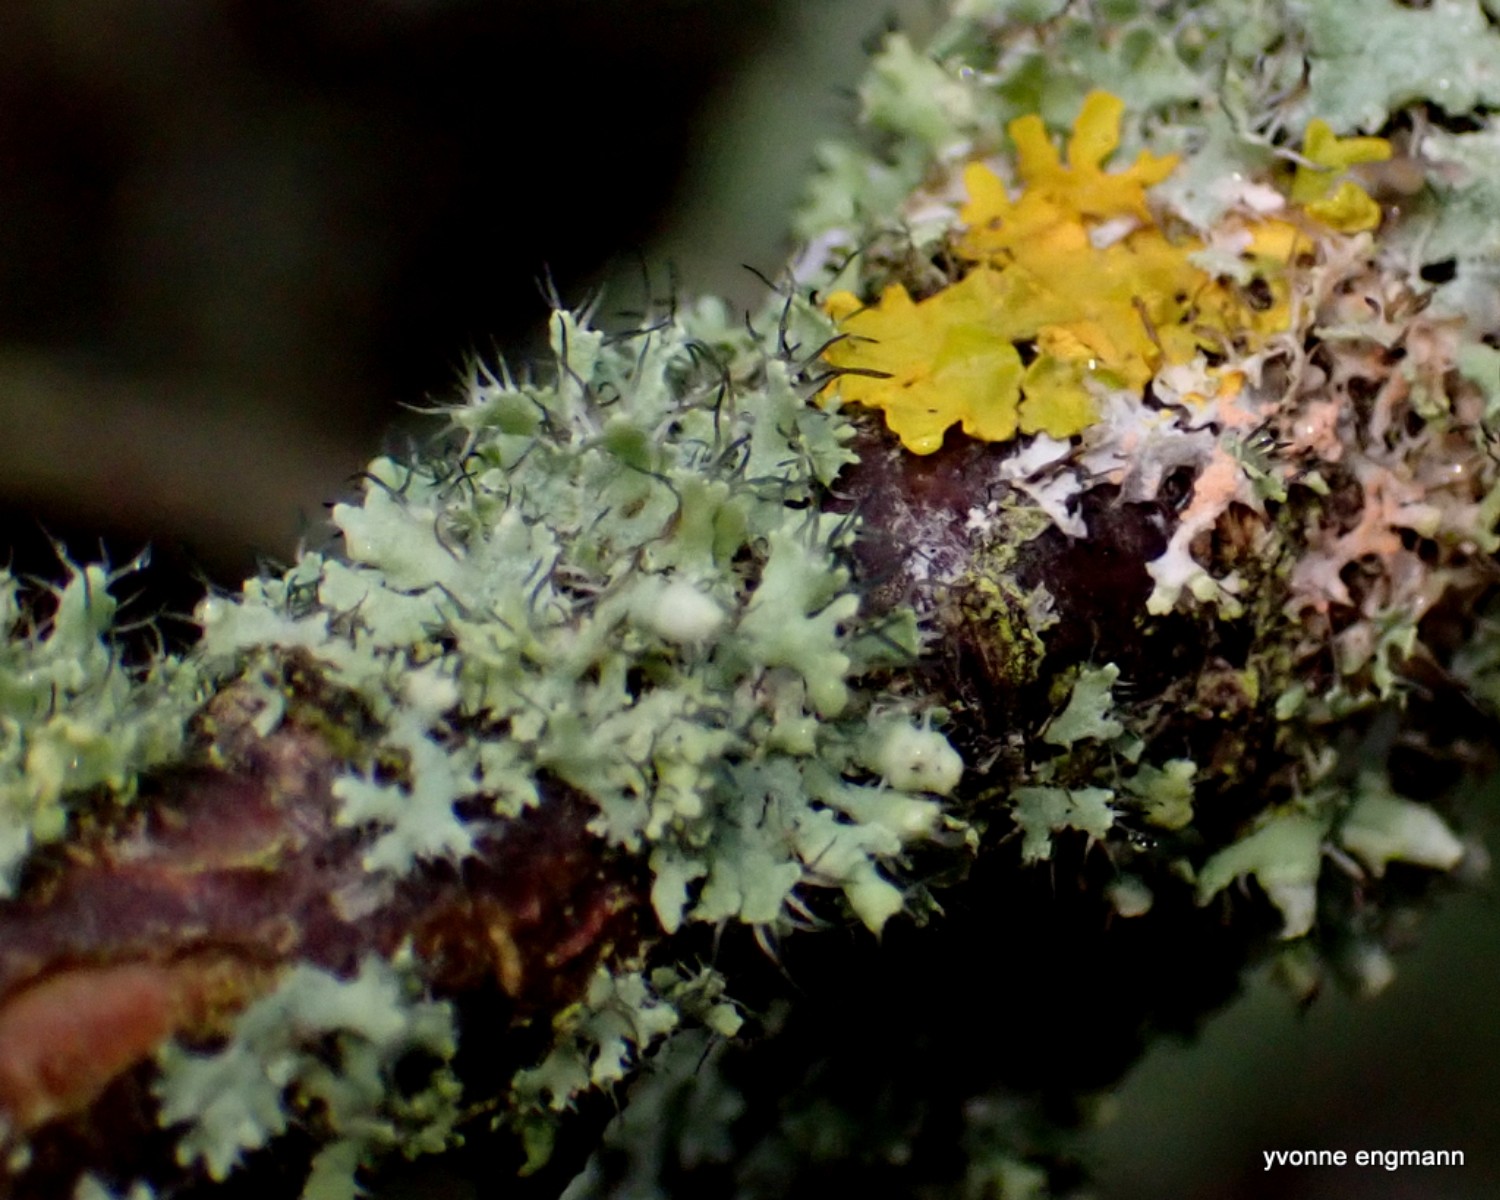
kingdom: Fungi
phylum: Ascomycota
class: Lecanoromycetes
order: Caliciales
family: Physciaceae
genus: Physcia
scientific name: Physcia tenella
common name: spæd rosetlav
